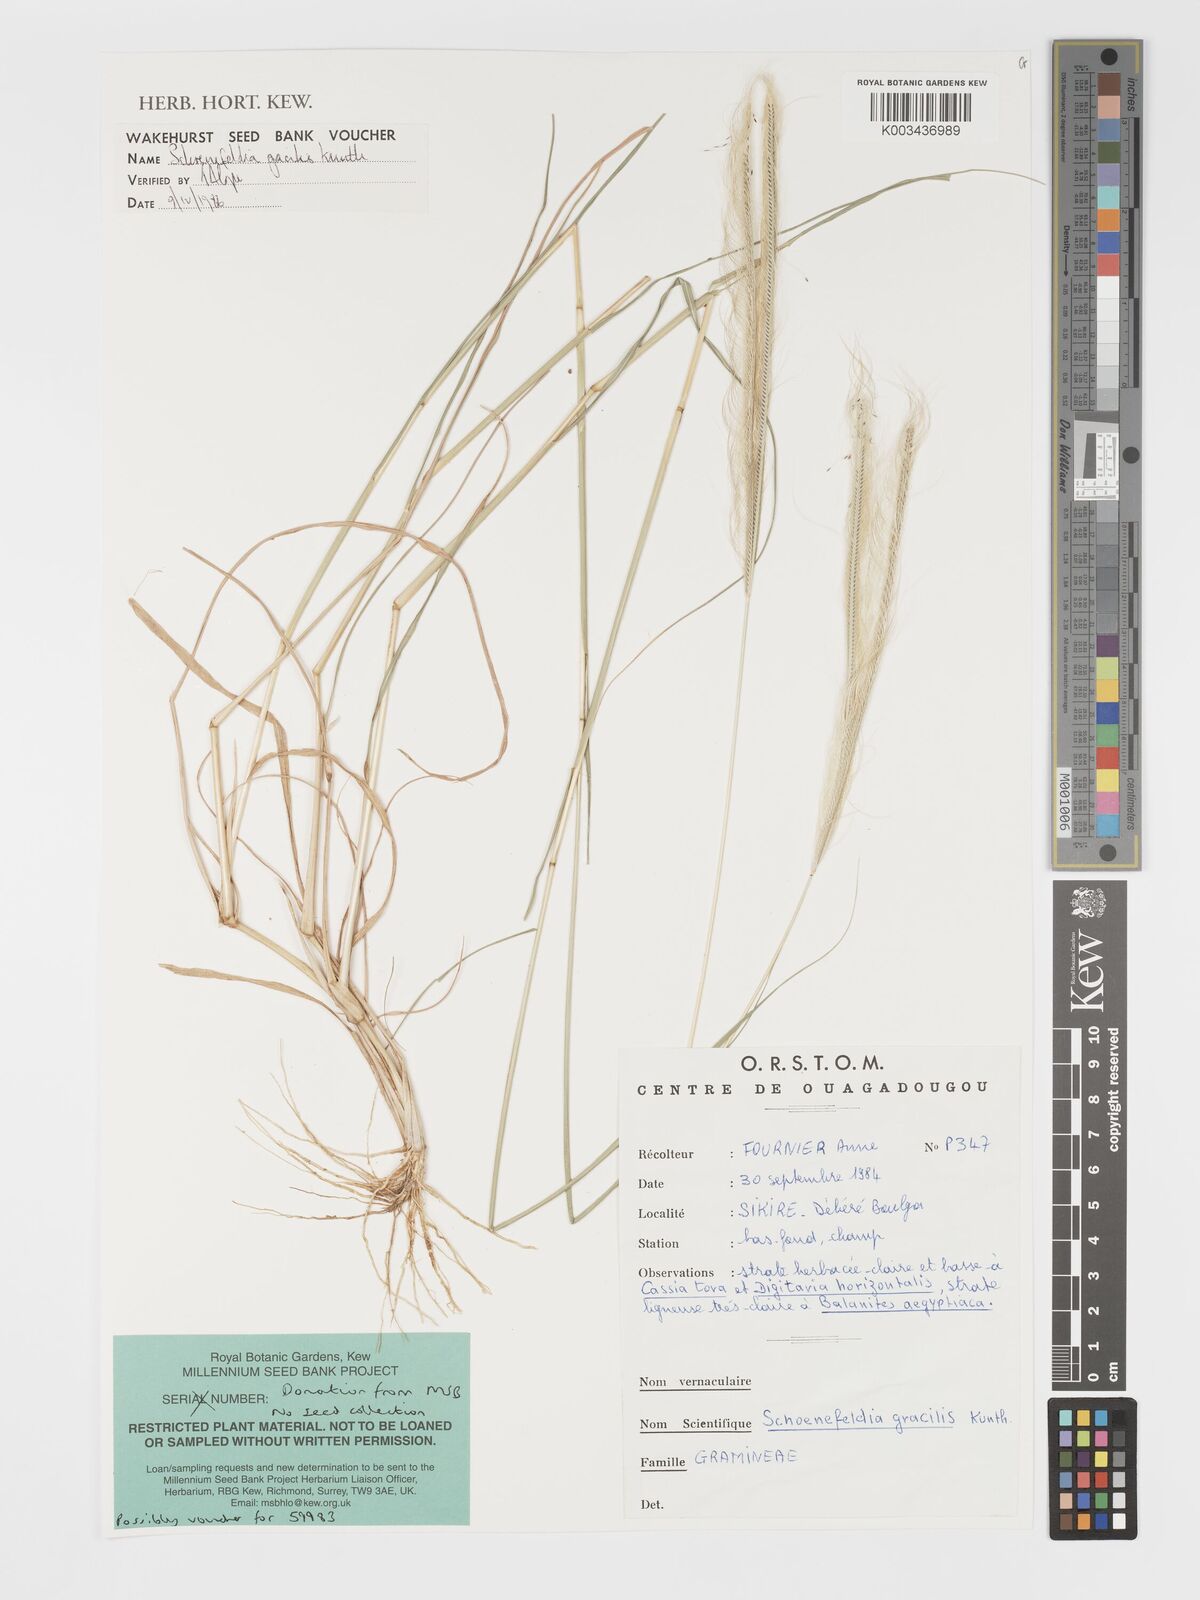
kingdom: Plantae
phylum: Tracheophyta
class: Liliopsida
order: Poales
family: Poaceae
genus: Schoenefeldia
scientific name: Schoenefeldia gracilis
